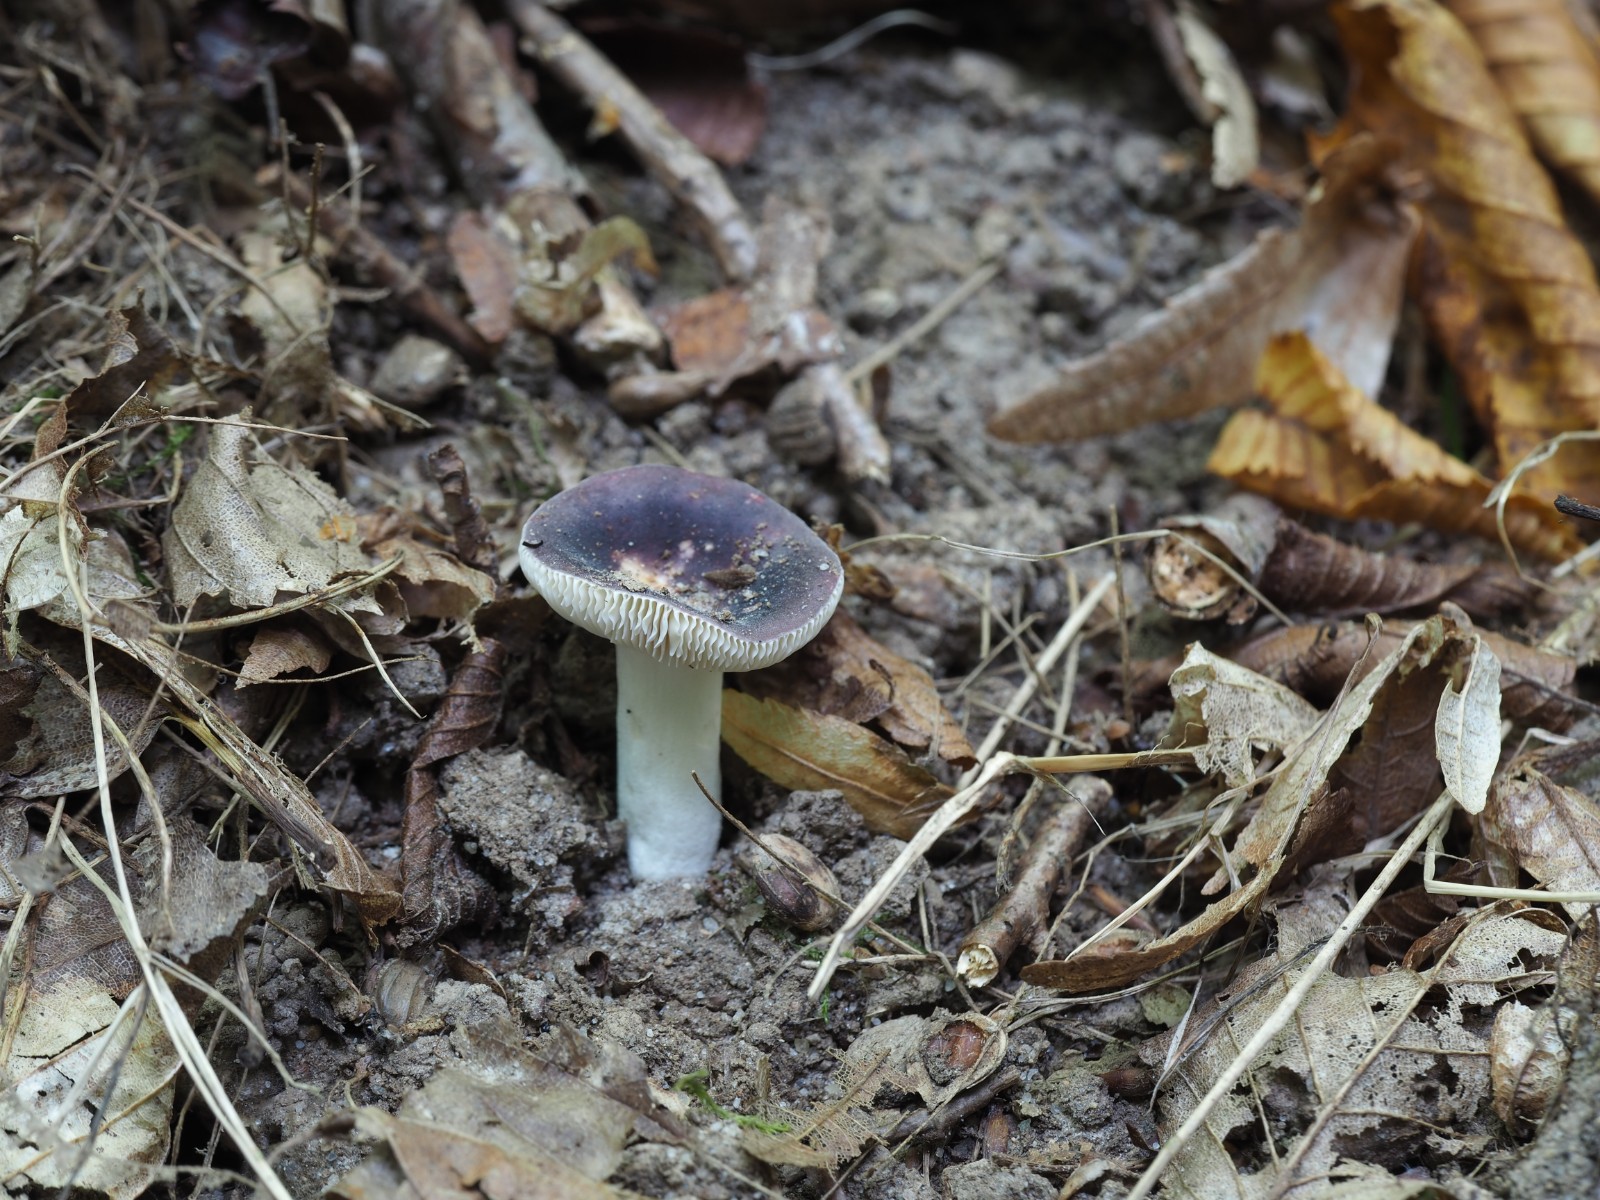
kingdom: Fungi
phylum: Basidiomycota
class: Agaricomycetes
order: Russulales
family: Russulaceae
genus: Russula
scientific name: Russula pelargonia
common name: pelargonie-skørhat
